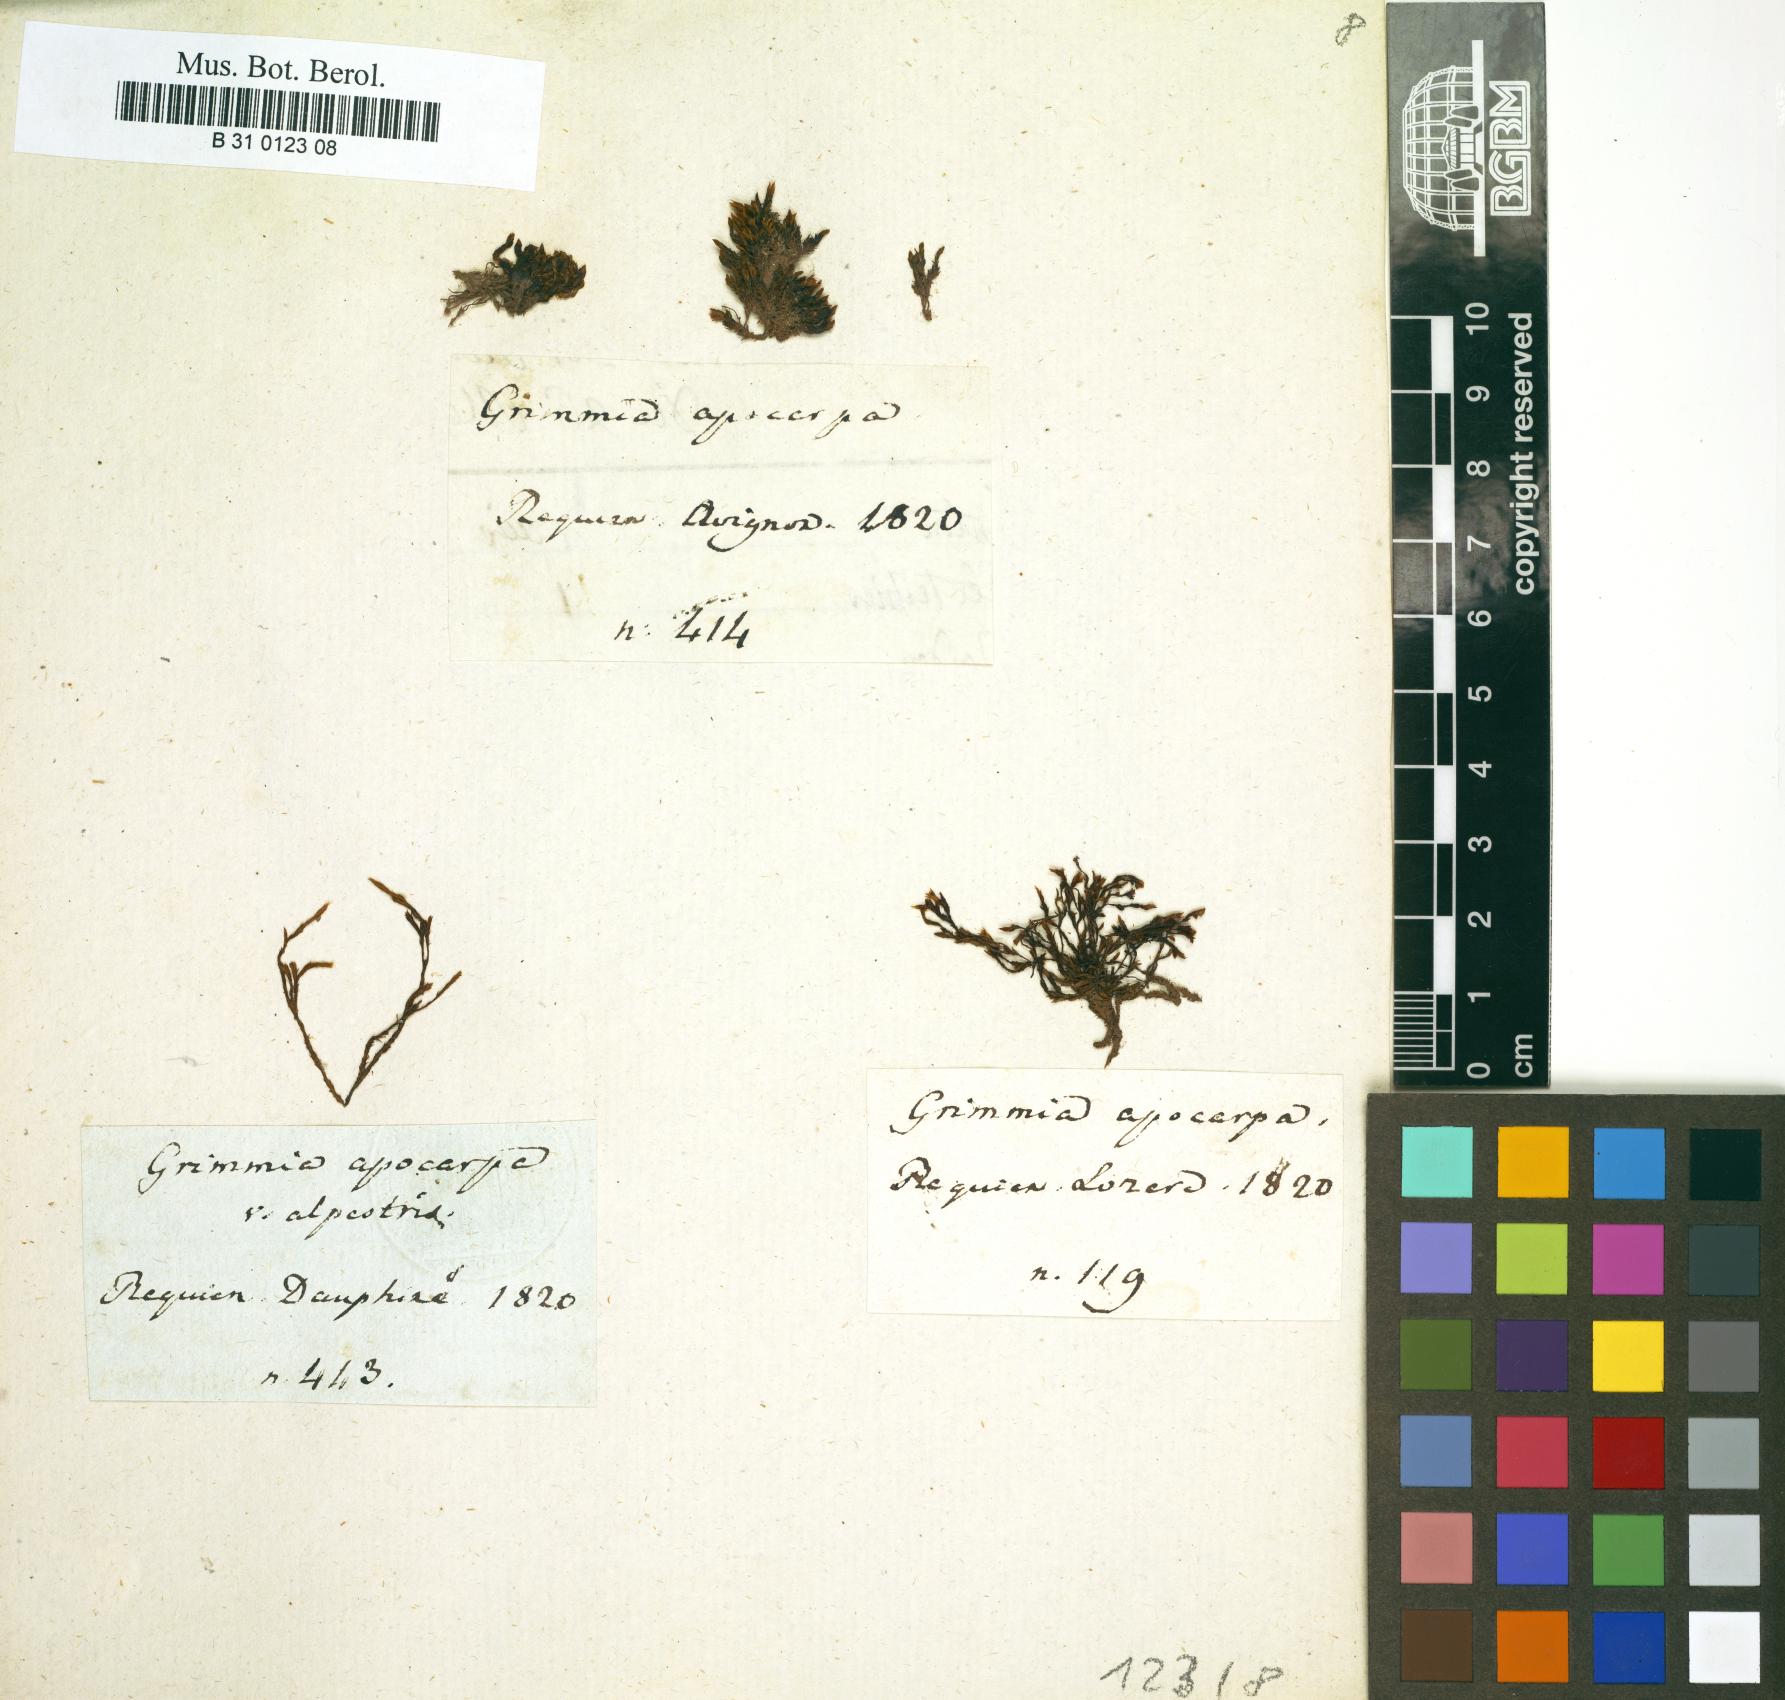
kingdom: Plantae
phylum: Bryophyta
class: Bryopsida
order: Grimmiales
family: Grimmiaceae
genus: Schistidium
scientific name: Schistidium apocarpum
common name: Radiate bloom moss
